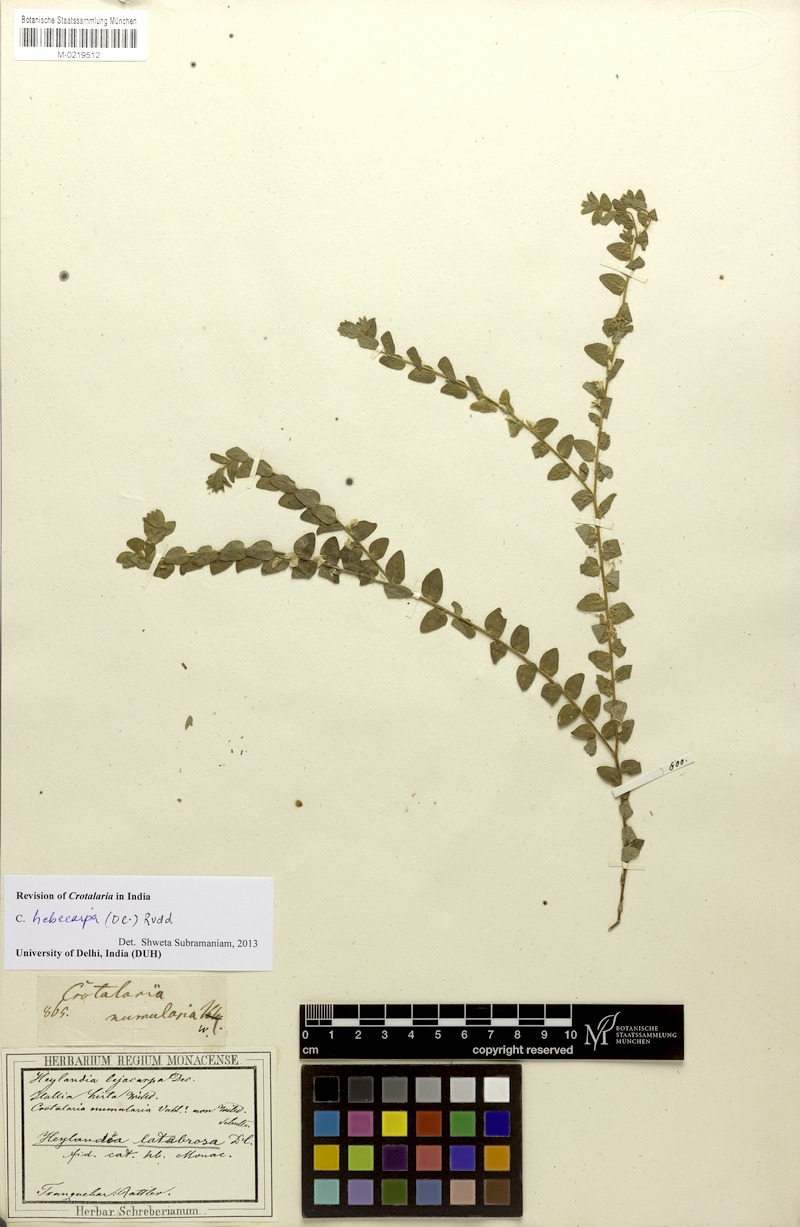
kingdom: Plantae
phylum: Tracheophyta
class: Magnoliopsida
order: Fabales
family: Fabaceae
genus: Crotalaria
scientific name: Crotalaria hebecarpa
